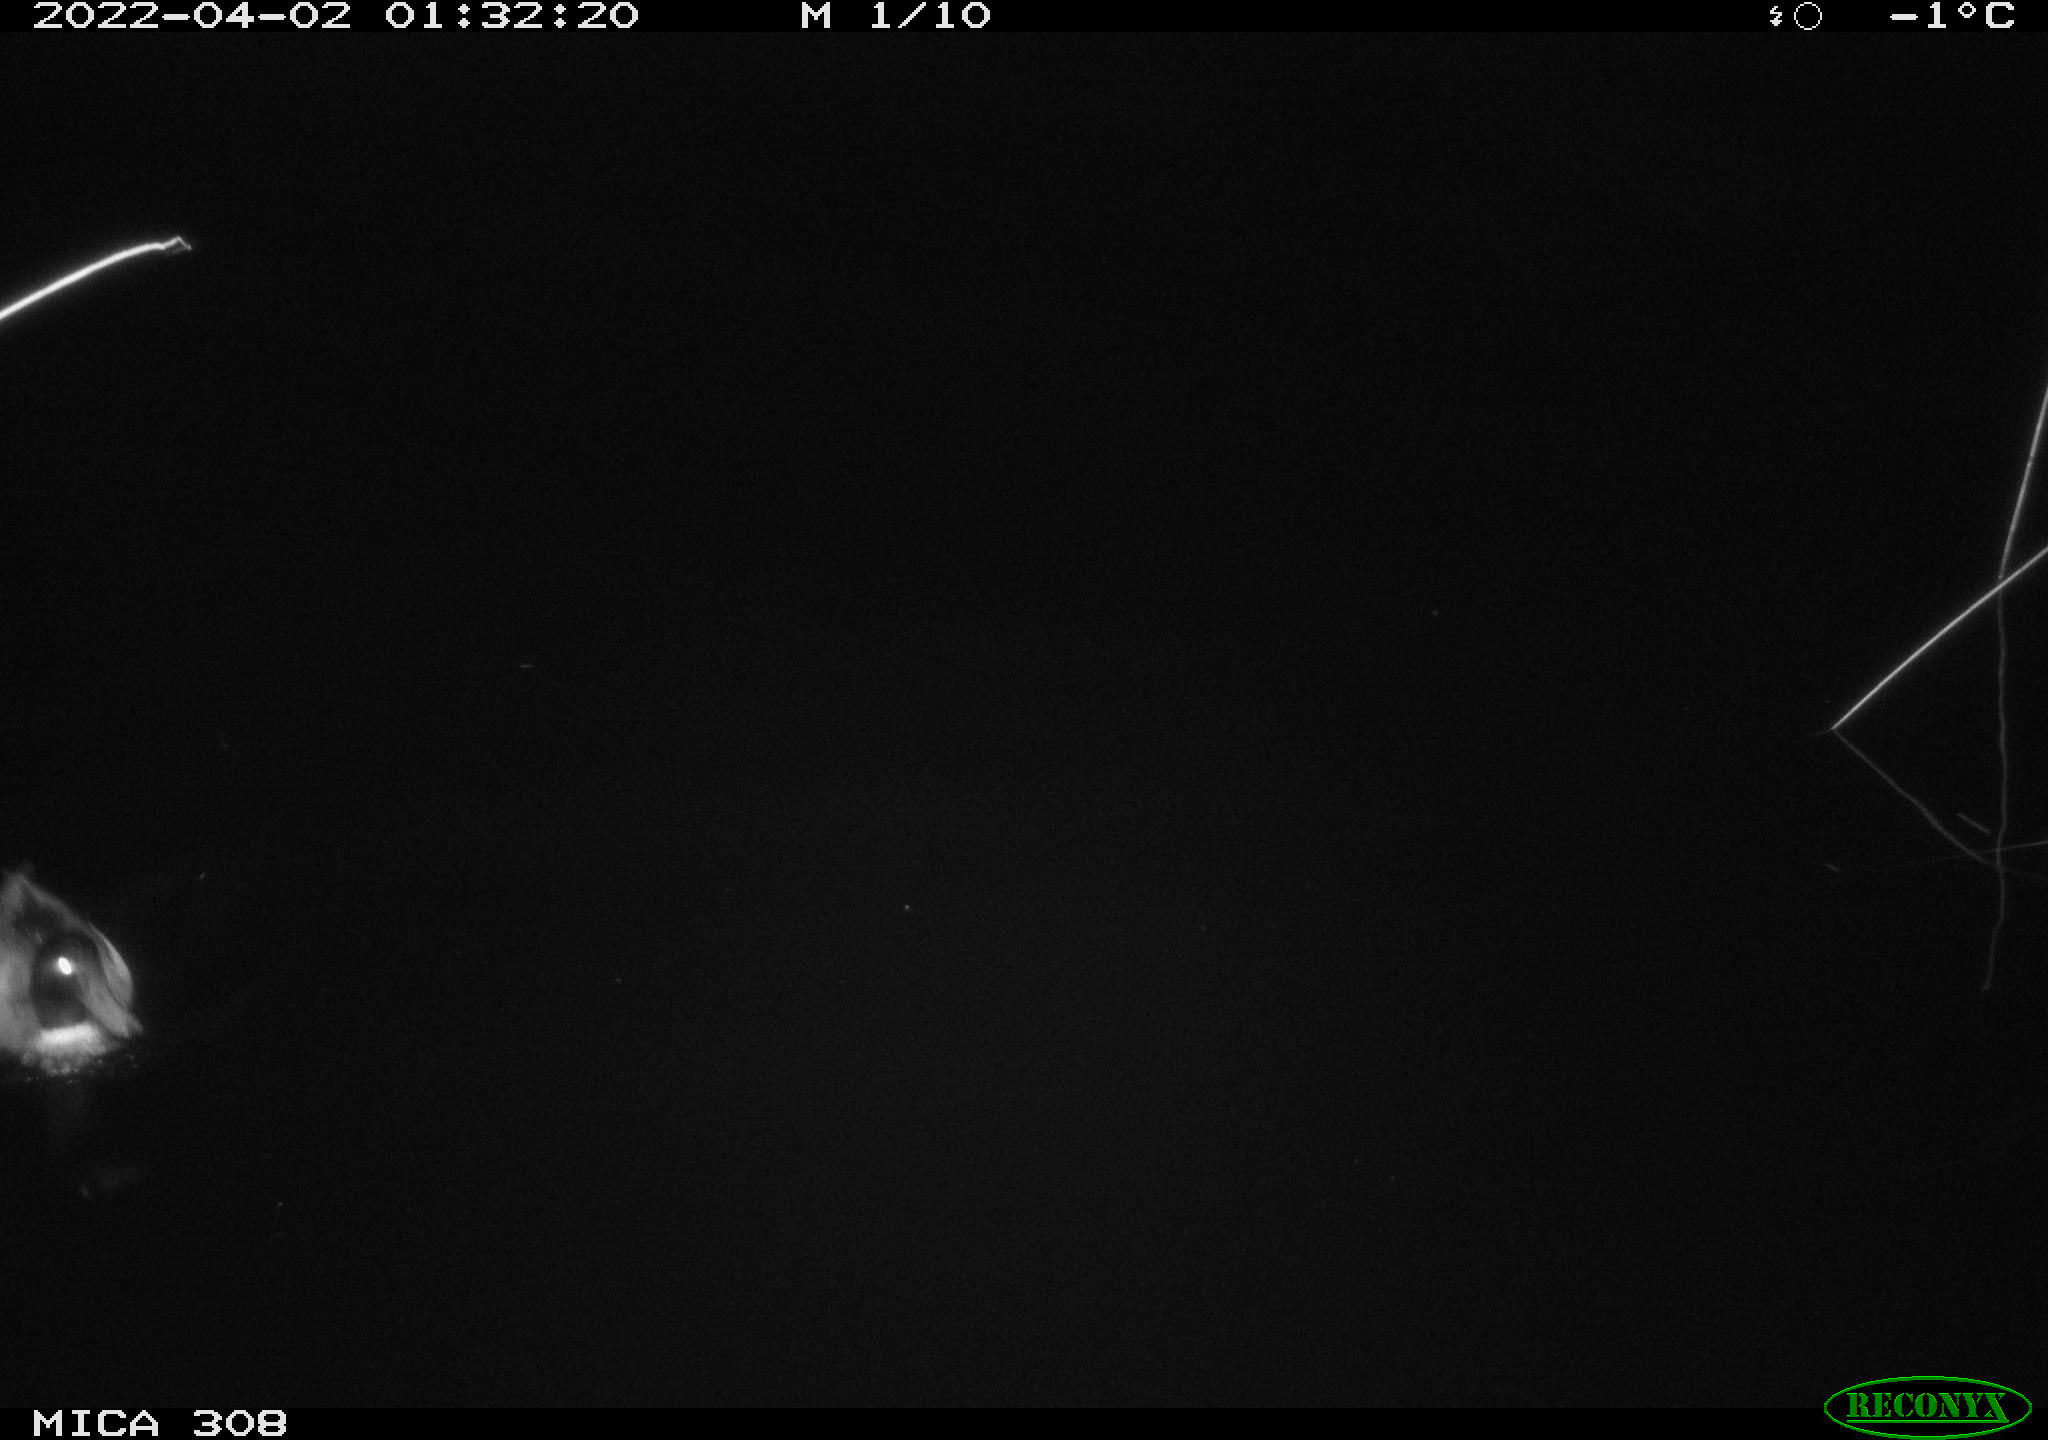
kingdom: Animalia
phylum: Chordata
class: Aves
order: Anseriformes
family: Anatidae
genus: Anas
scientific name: Anas platyrhynchos
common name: Mallard
